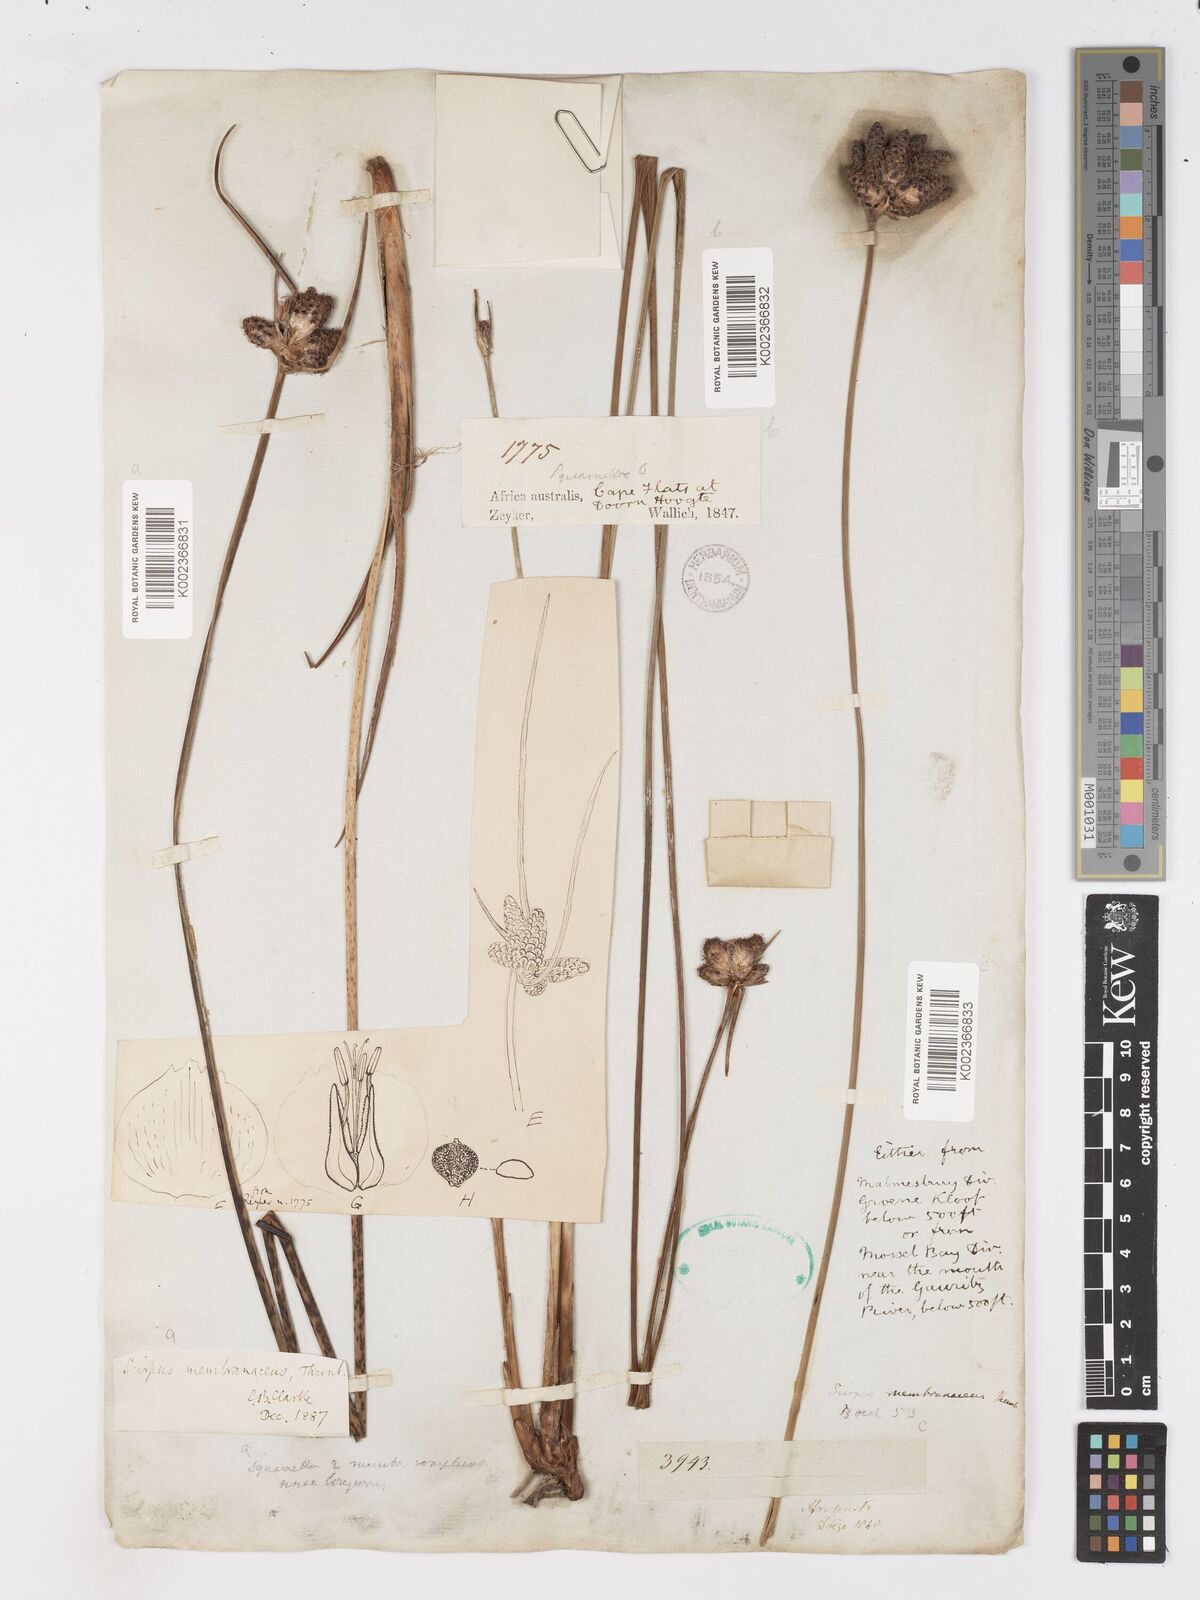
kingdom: Plantae
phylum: Tracheophyta
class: Liliopsida
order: Poales
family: Cyperaceae
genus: Hellmuthia
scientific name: Hellmuthia membranacea
